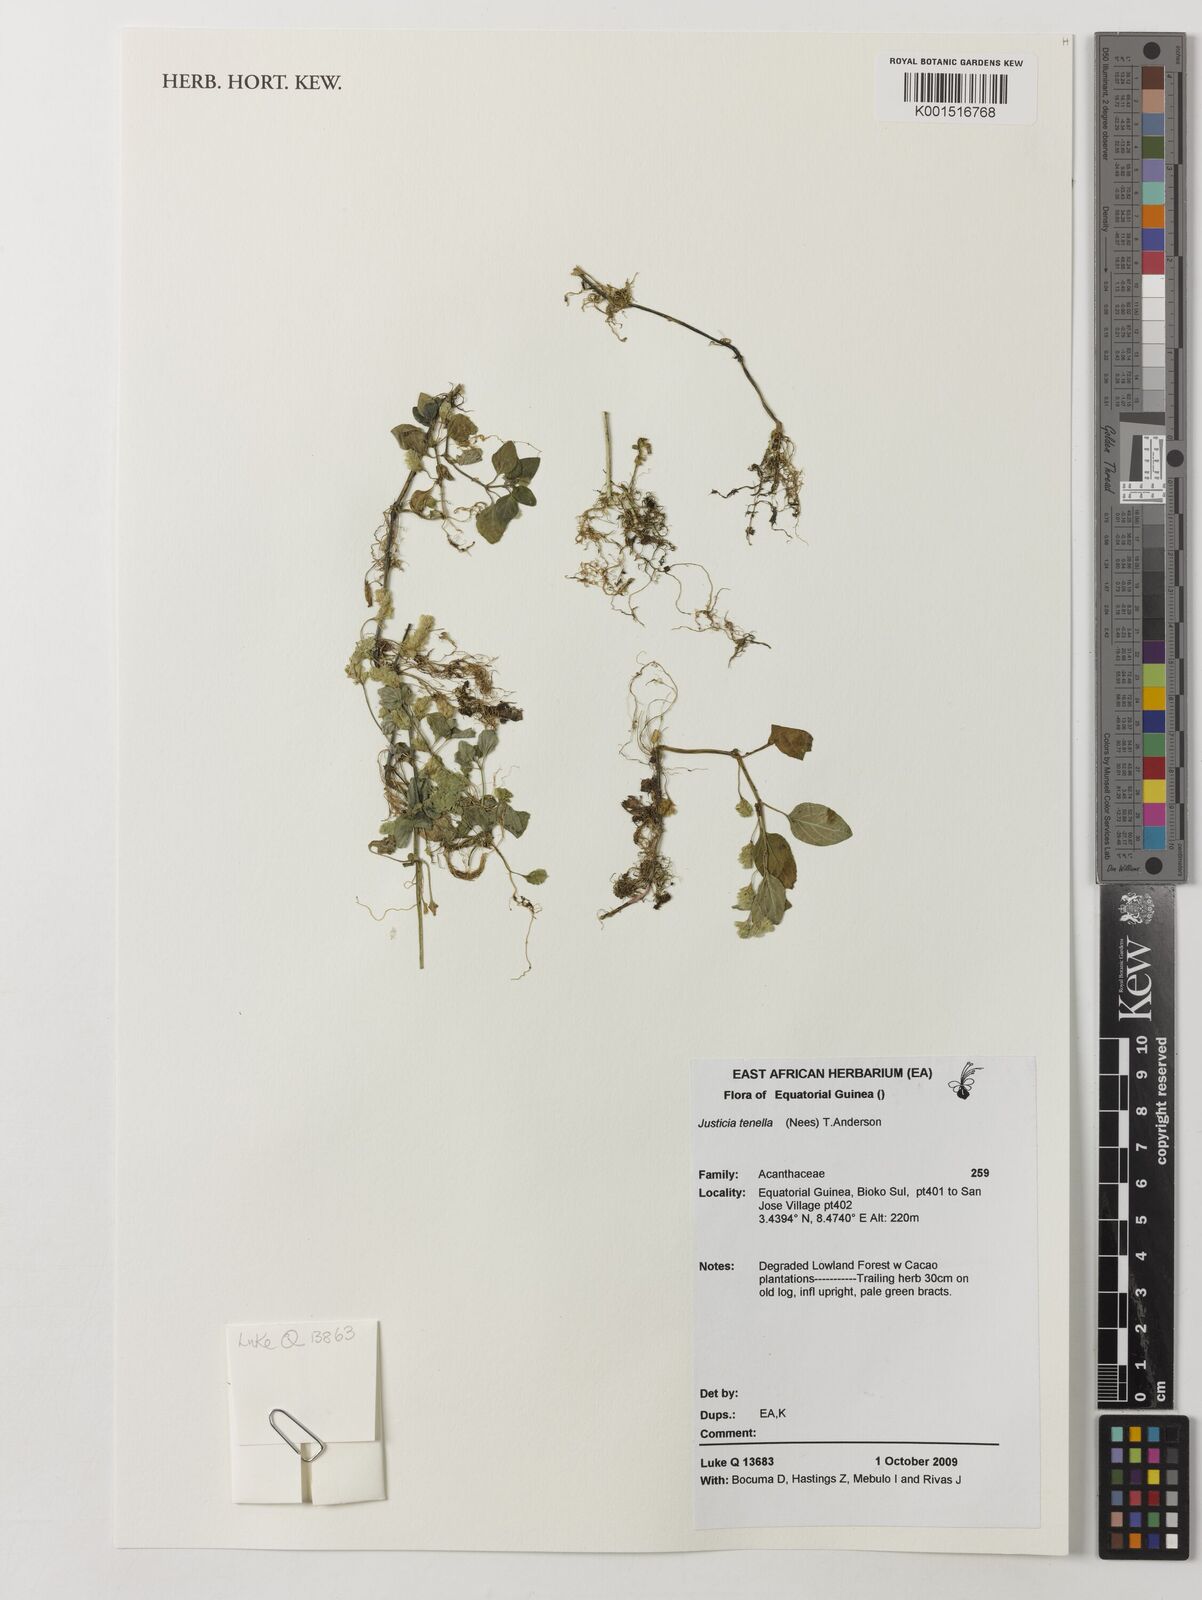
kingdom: Plantae
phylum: Tracheophyta
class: Magnoliopsida
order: Lamiales
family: Acanthaceae
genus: Anisostachya
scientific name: Anisostachya tenella
